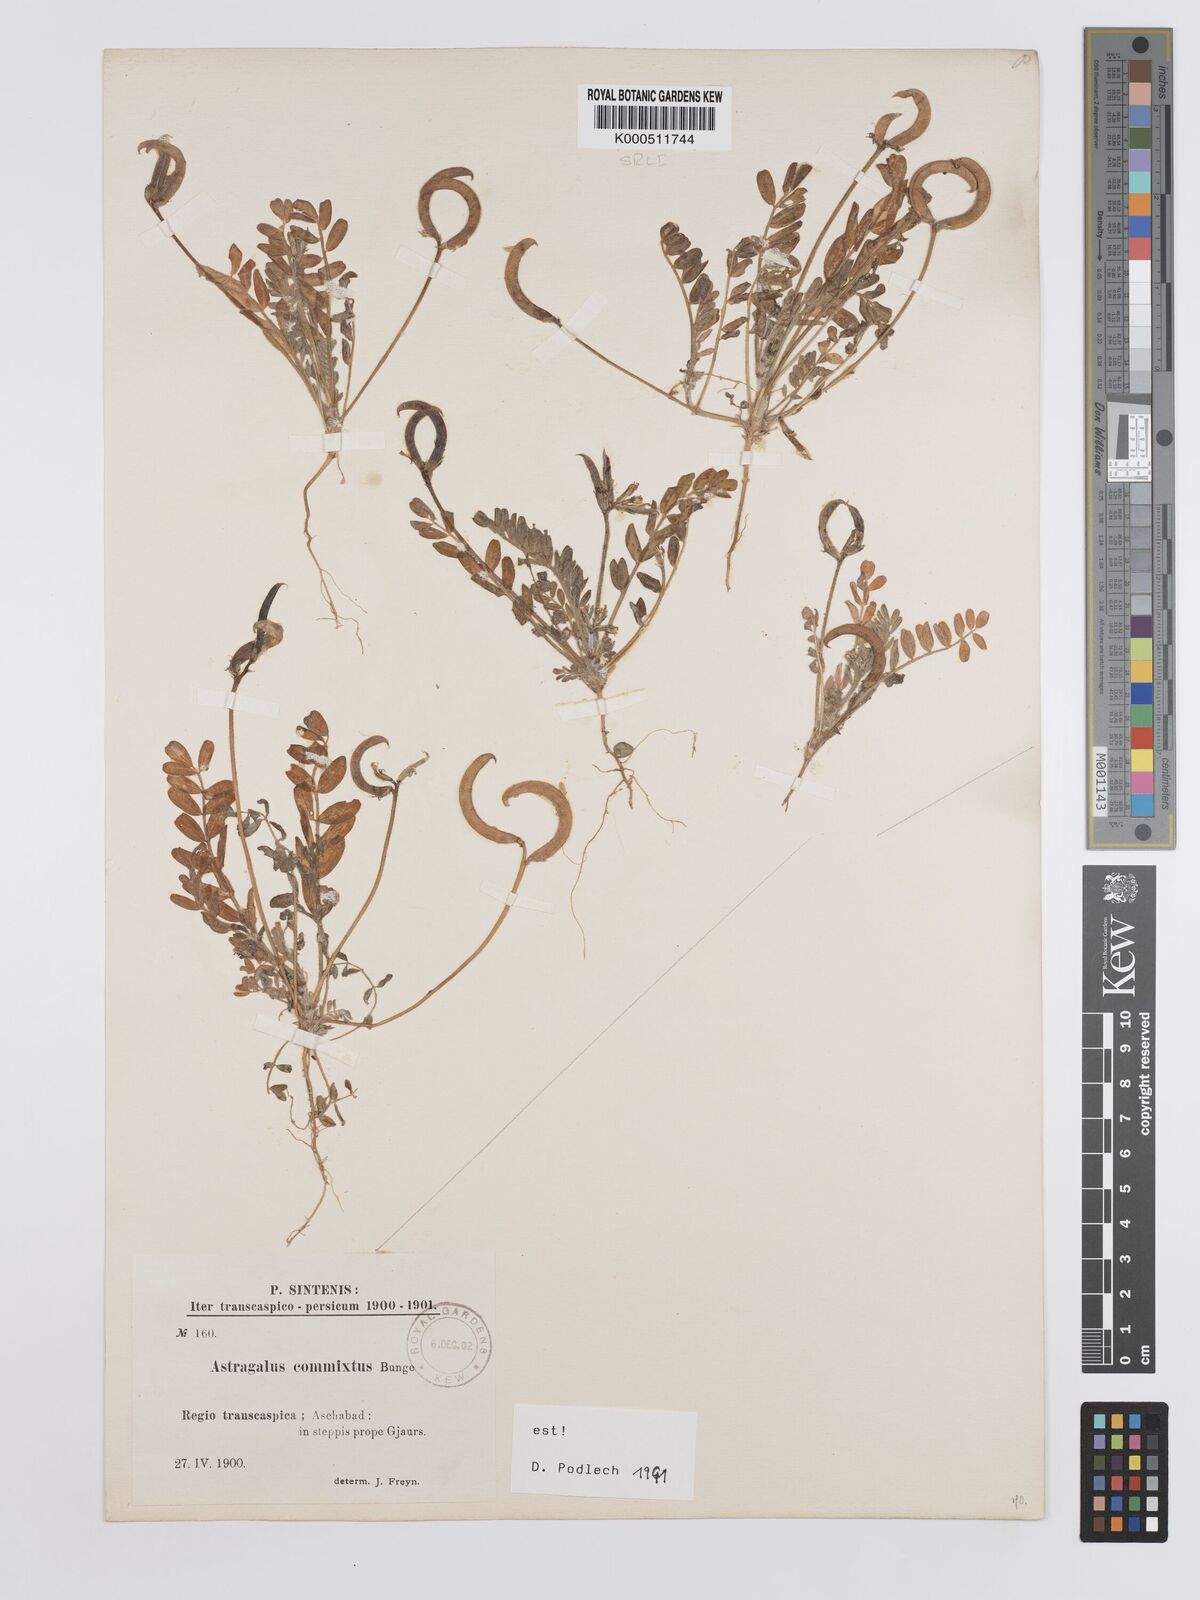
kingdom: Plantae
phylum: Tracheophyta
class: Magnoliopsida
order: Fabales
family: Fabaceae
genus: Astragalus
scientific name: Astragalus commixtus
